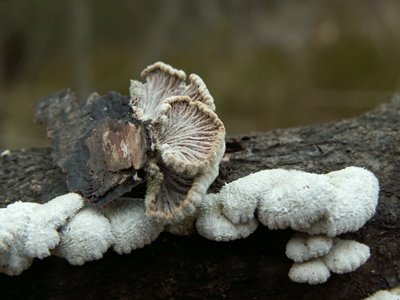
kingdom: Fungi
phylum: Basidiomycota
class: Agaricomycetes
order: Agaricales
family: Schizophyllaceae
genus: Schizophyllum
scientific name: Schizophyllum commune
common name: kløvblad
